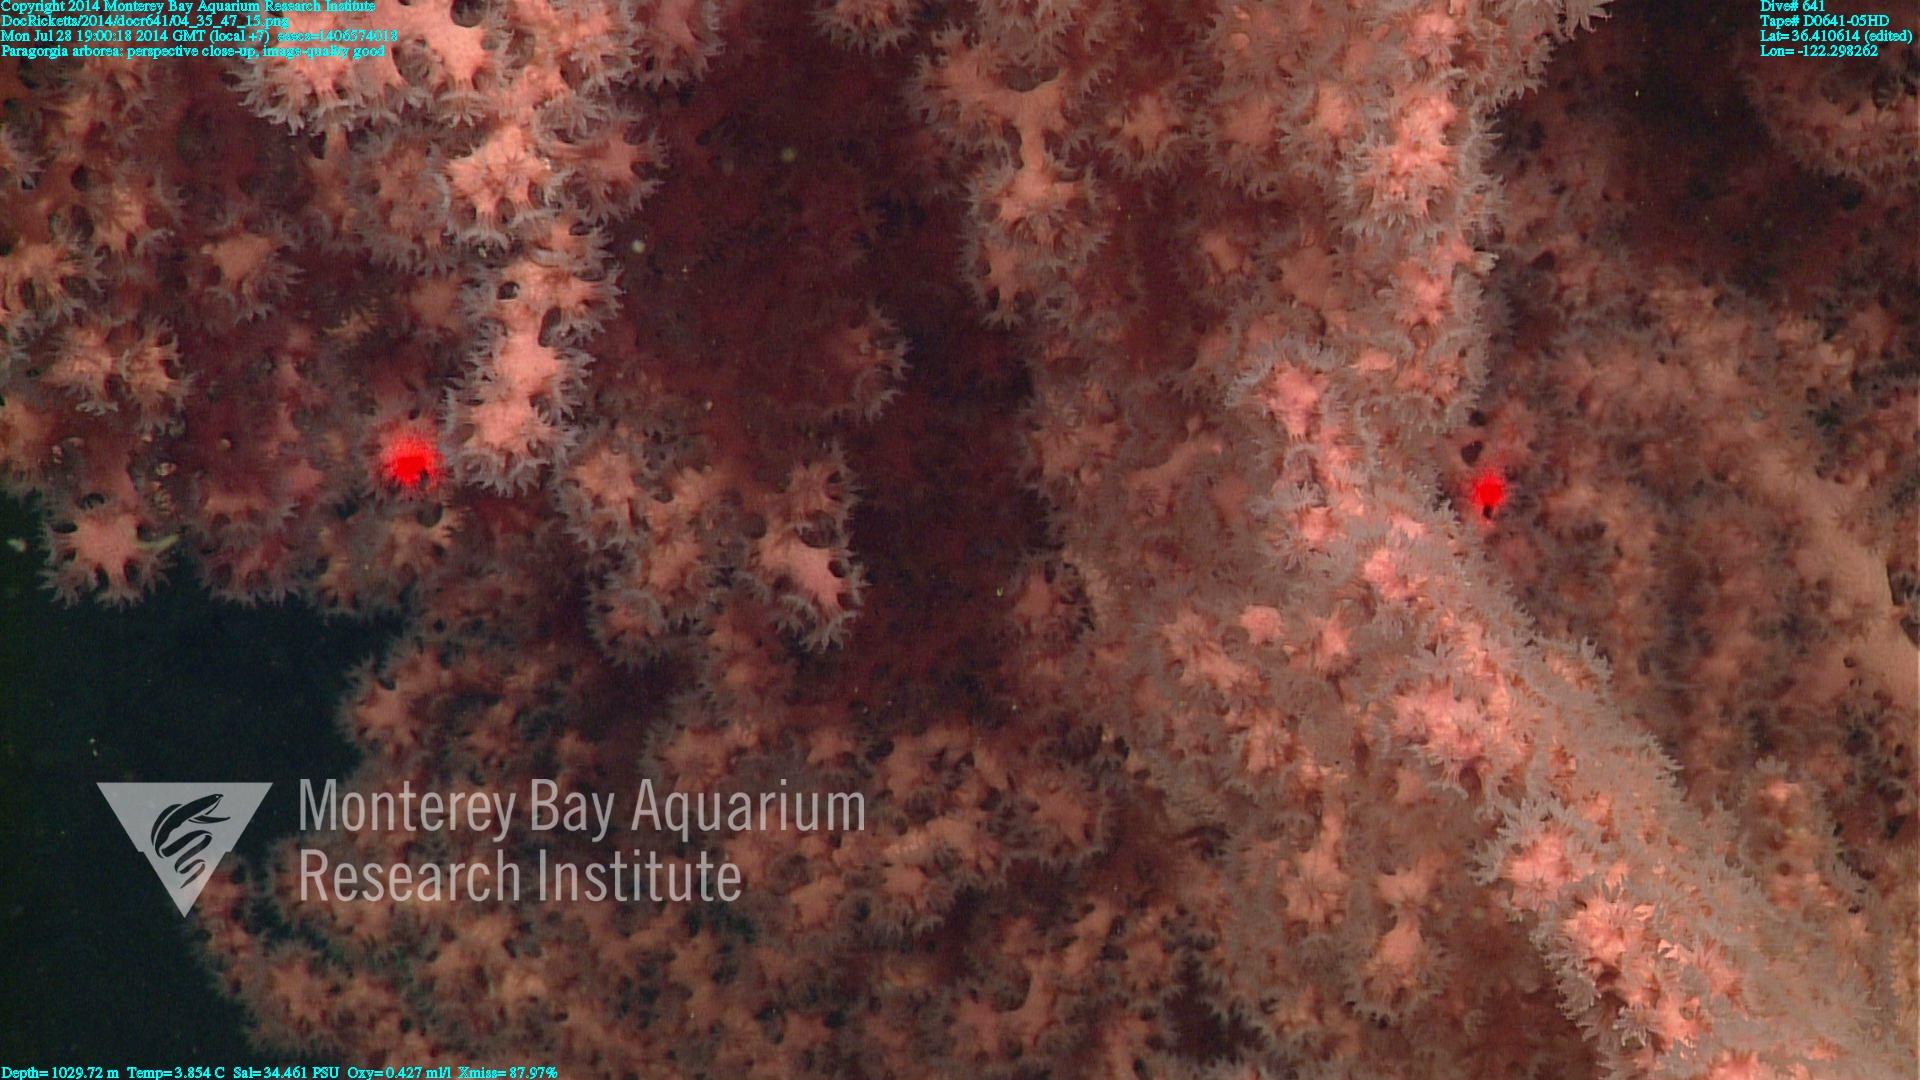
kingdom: Animalia
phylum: Cnidaria
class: Anthozoa
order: Scleralcyonacea
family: Coralliidae
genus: Paragorgia
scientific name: Paragorgia arborea
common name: Bubble gum coral
